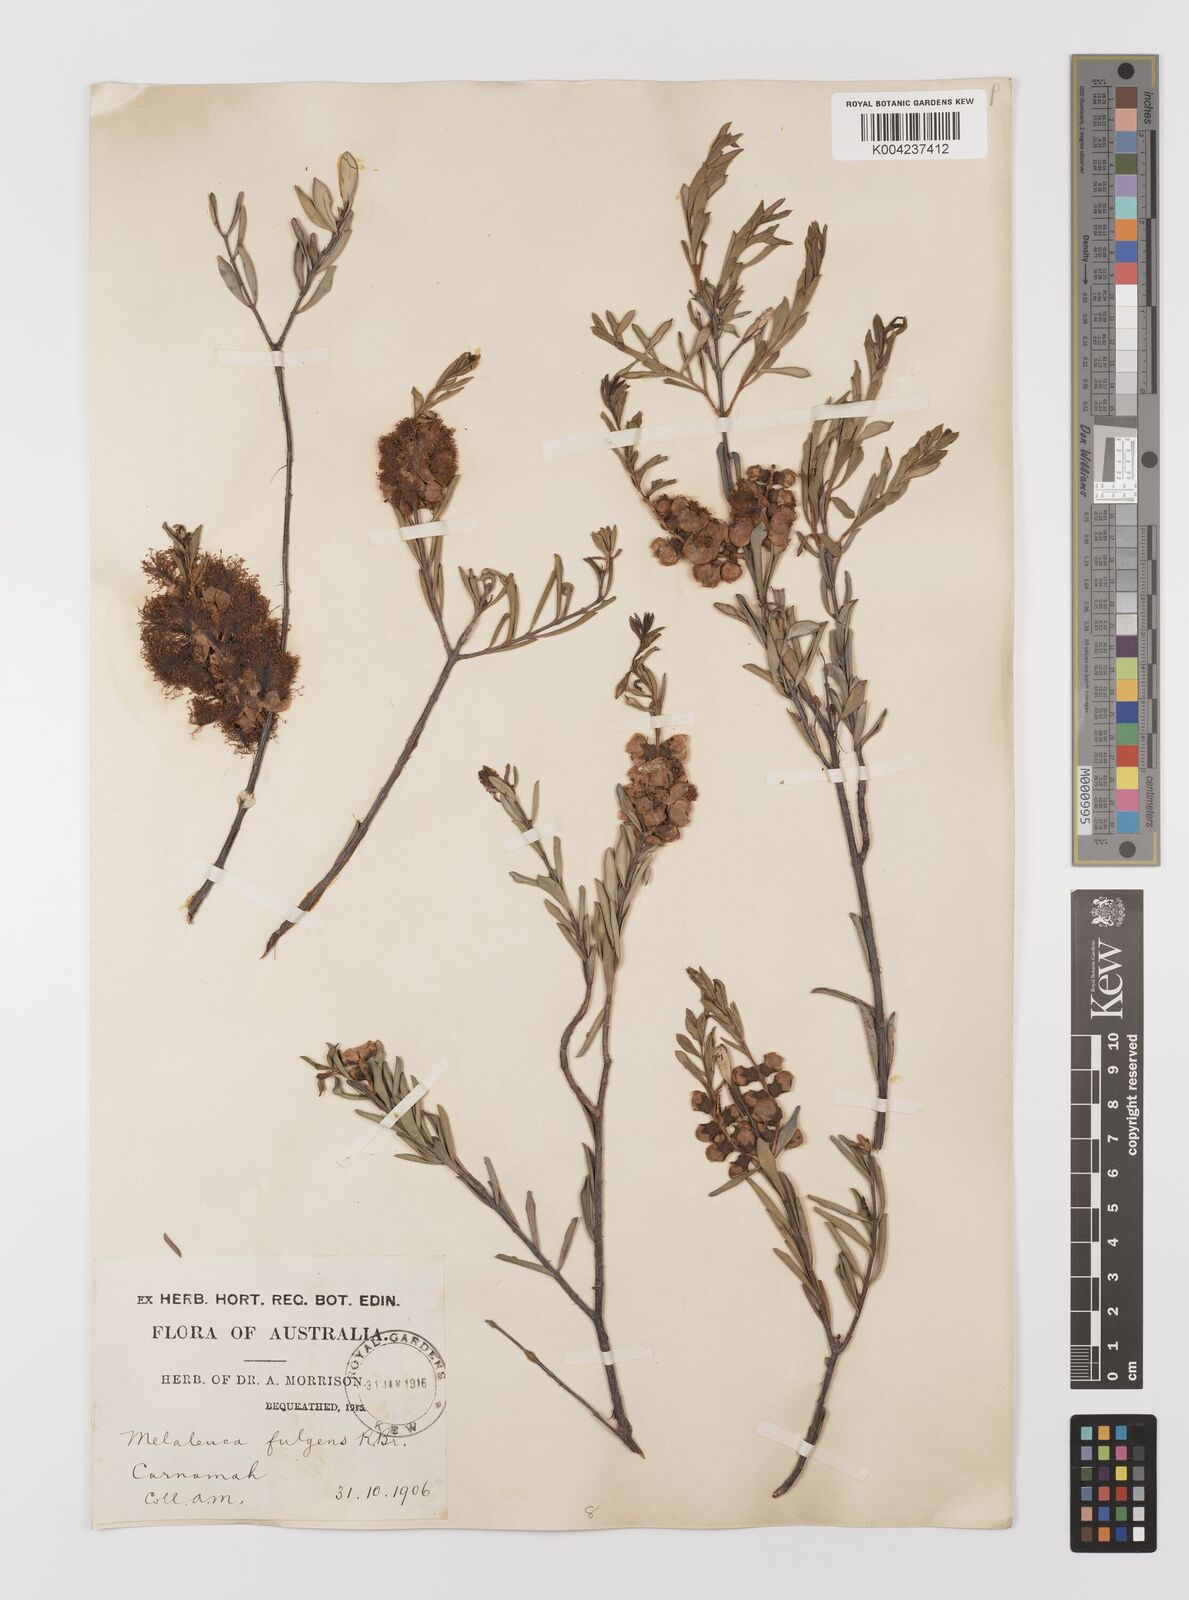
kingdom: Plantae
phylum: Tracheophyta
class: Magnoliopsida
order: Myrtales
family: Myrtaceae
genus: Melaleuca
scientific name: Melaleuca
